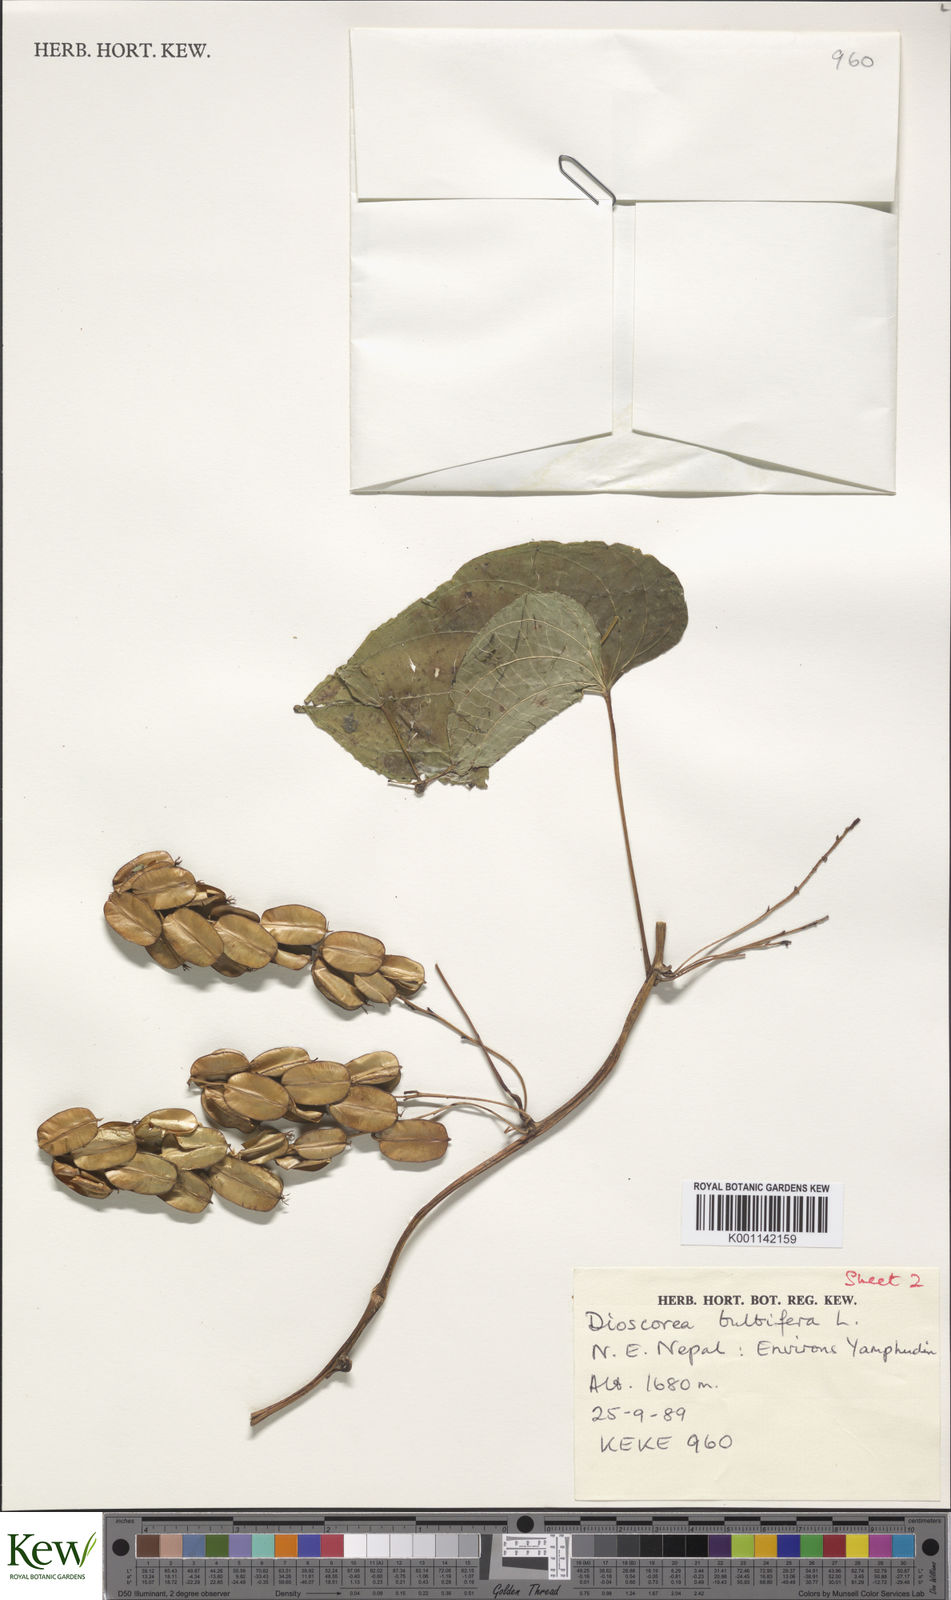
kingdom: Plantae
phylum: Tracheophyta
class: Liliopsida
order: Dioscoreales
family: Dioscoreaceae
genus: Dioscorea
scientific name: Dioscorea bulbifera
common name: Air yam
